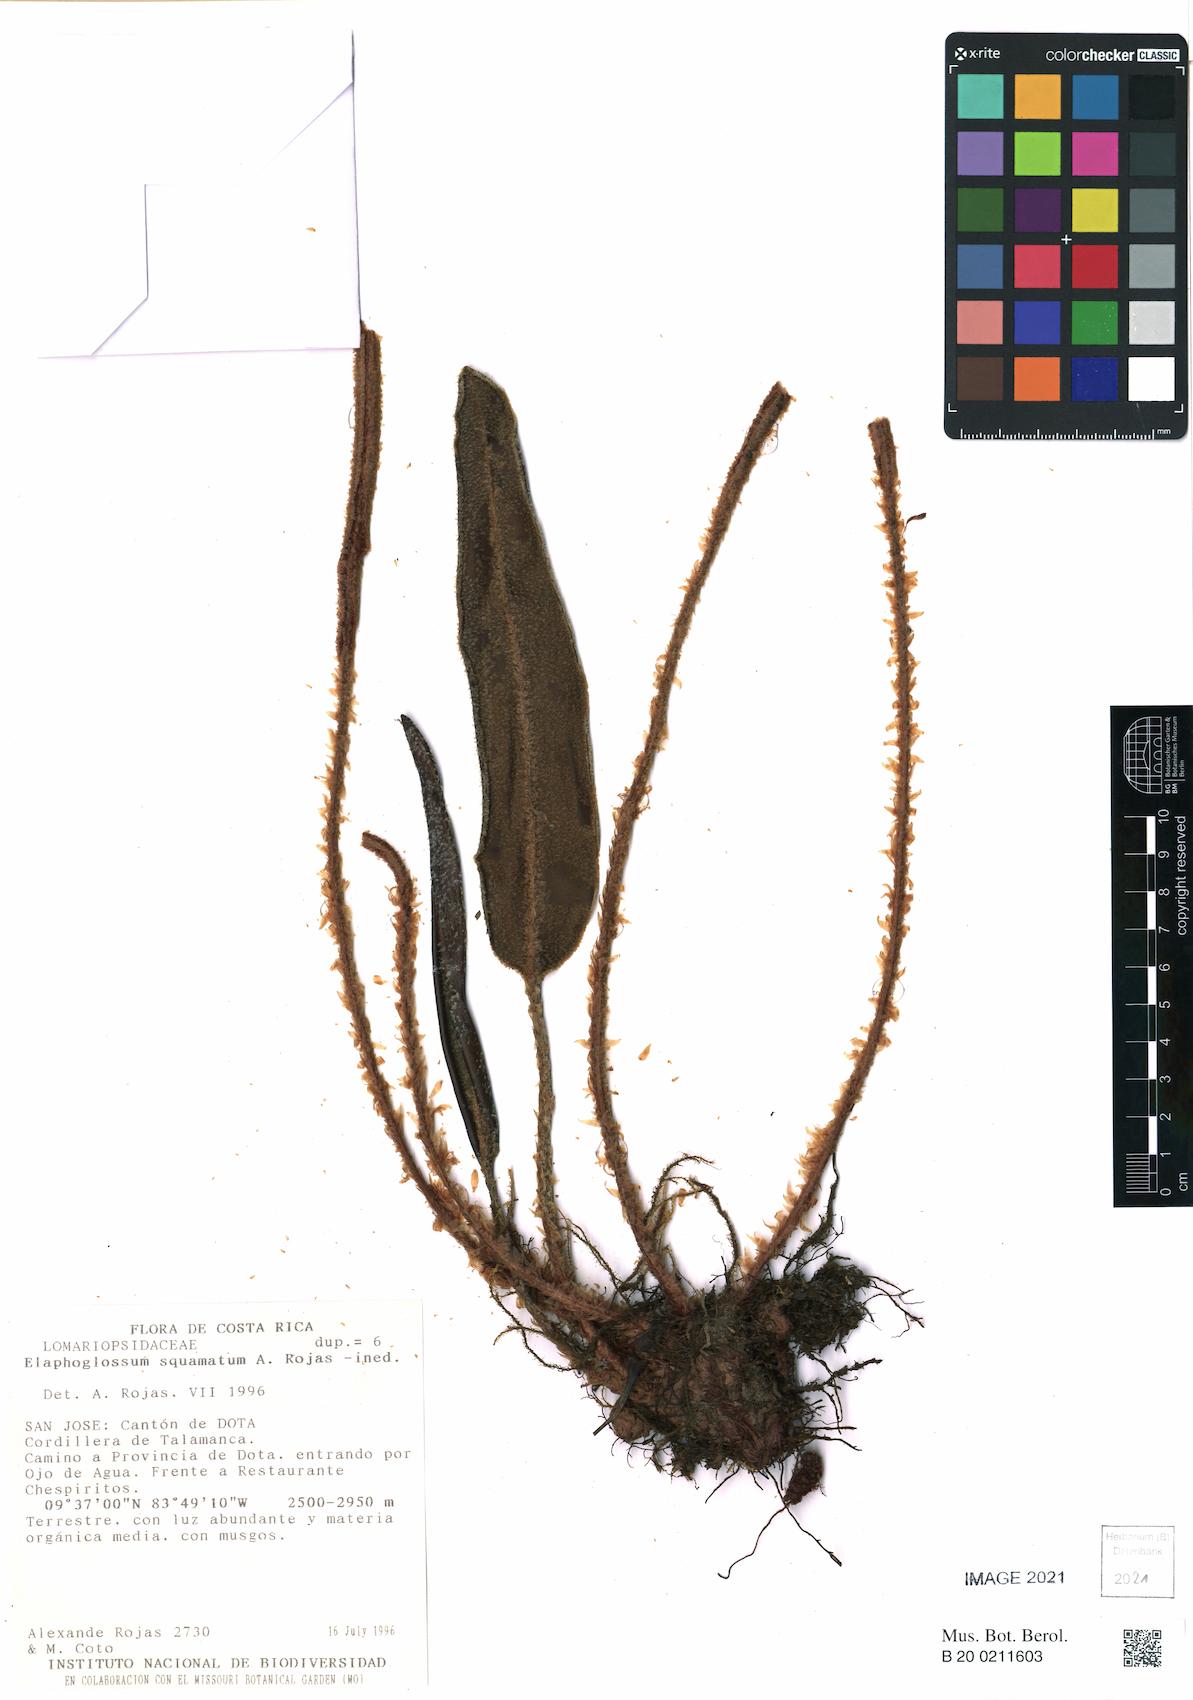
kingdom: Plantae
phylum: Tracheophyta
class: Polypodiopsida
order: Polypodiales
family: Dryopteridaceae
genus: Elaphoglossum
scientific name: Elaphoglossum lindenii
